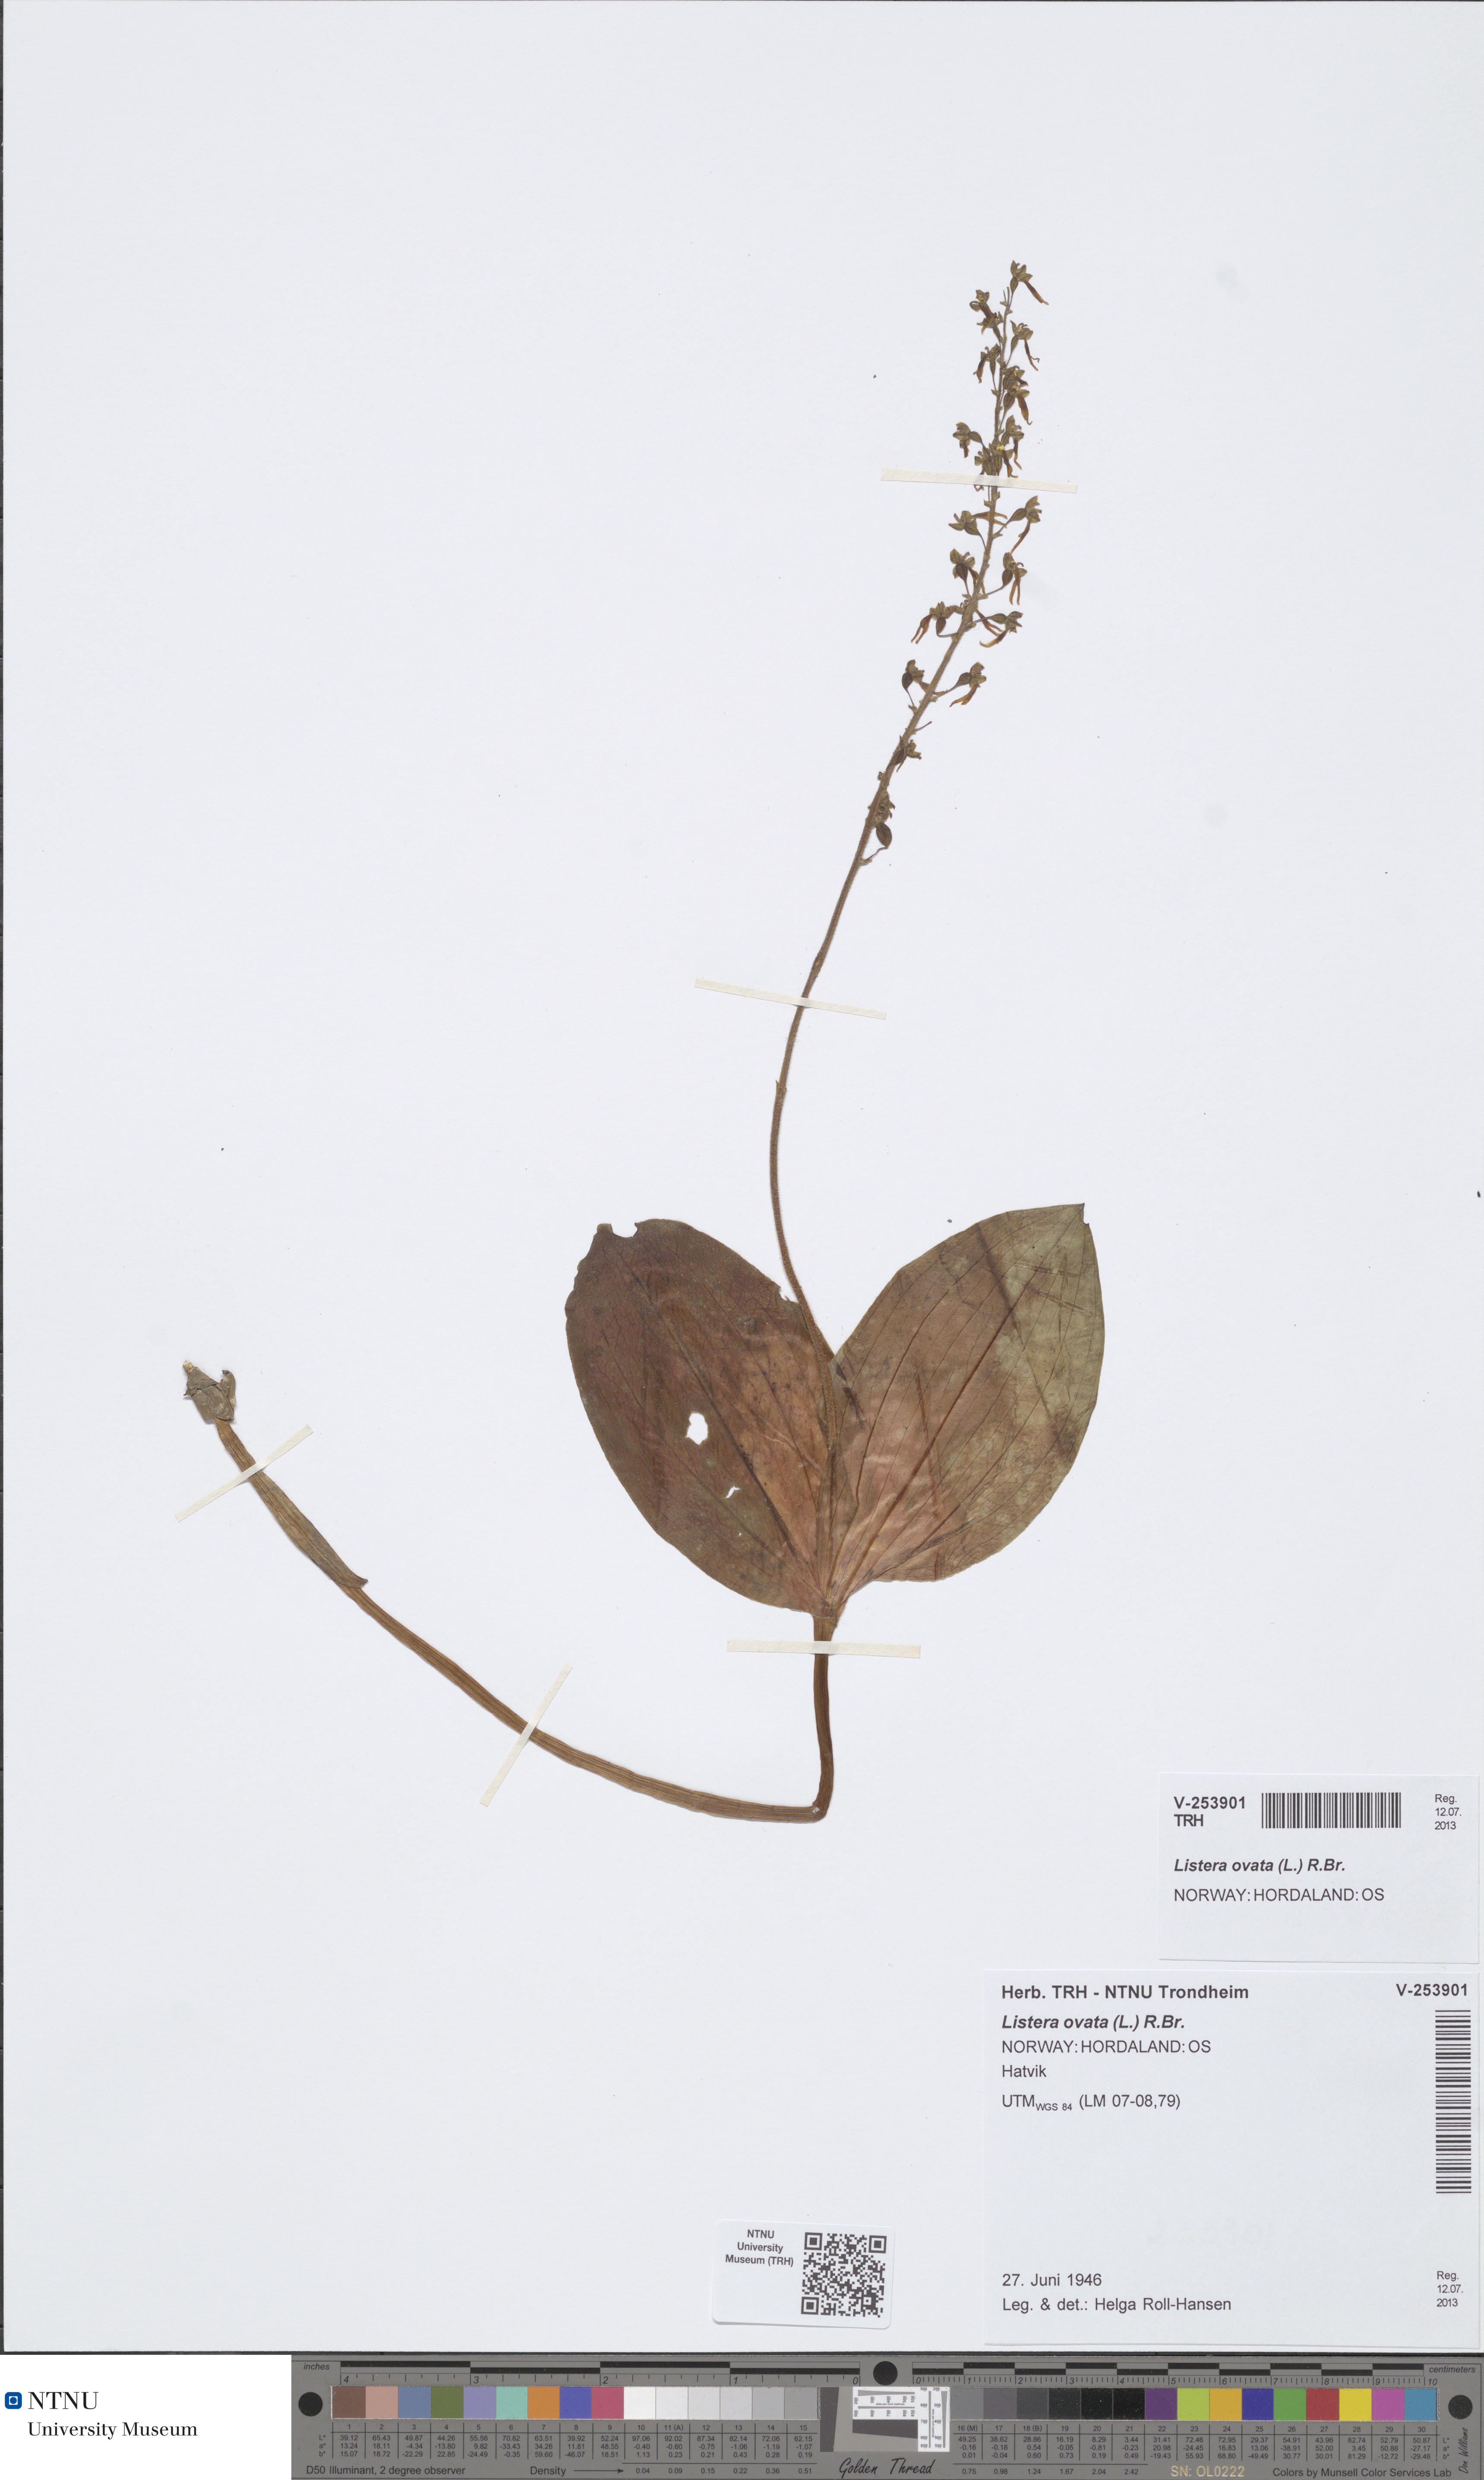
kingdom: Plantae
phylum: Tracheophyta
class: Liliopsida
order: Asparagales
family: Orchidaceae
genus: Neottia
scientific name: Neottia ovata
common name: Common twayblade
